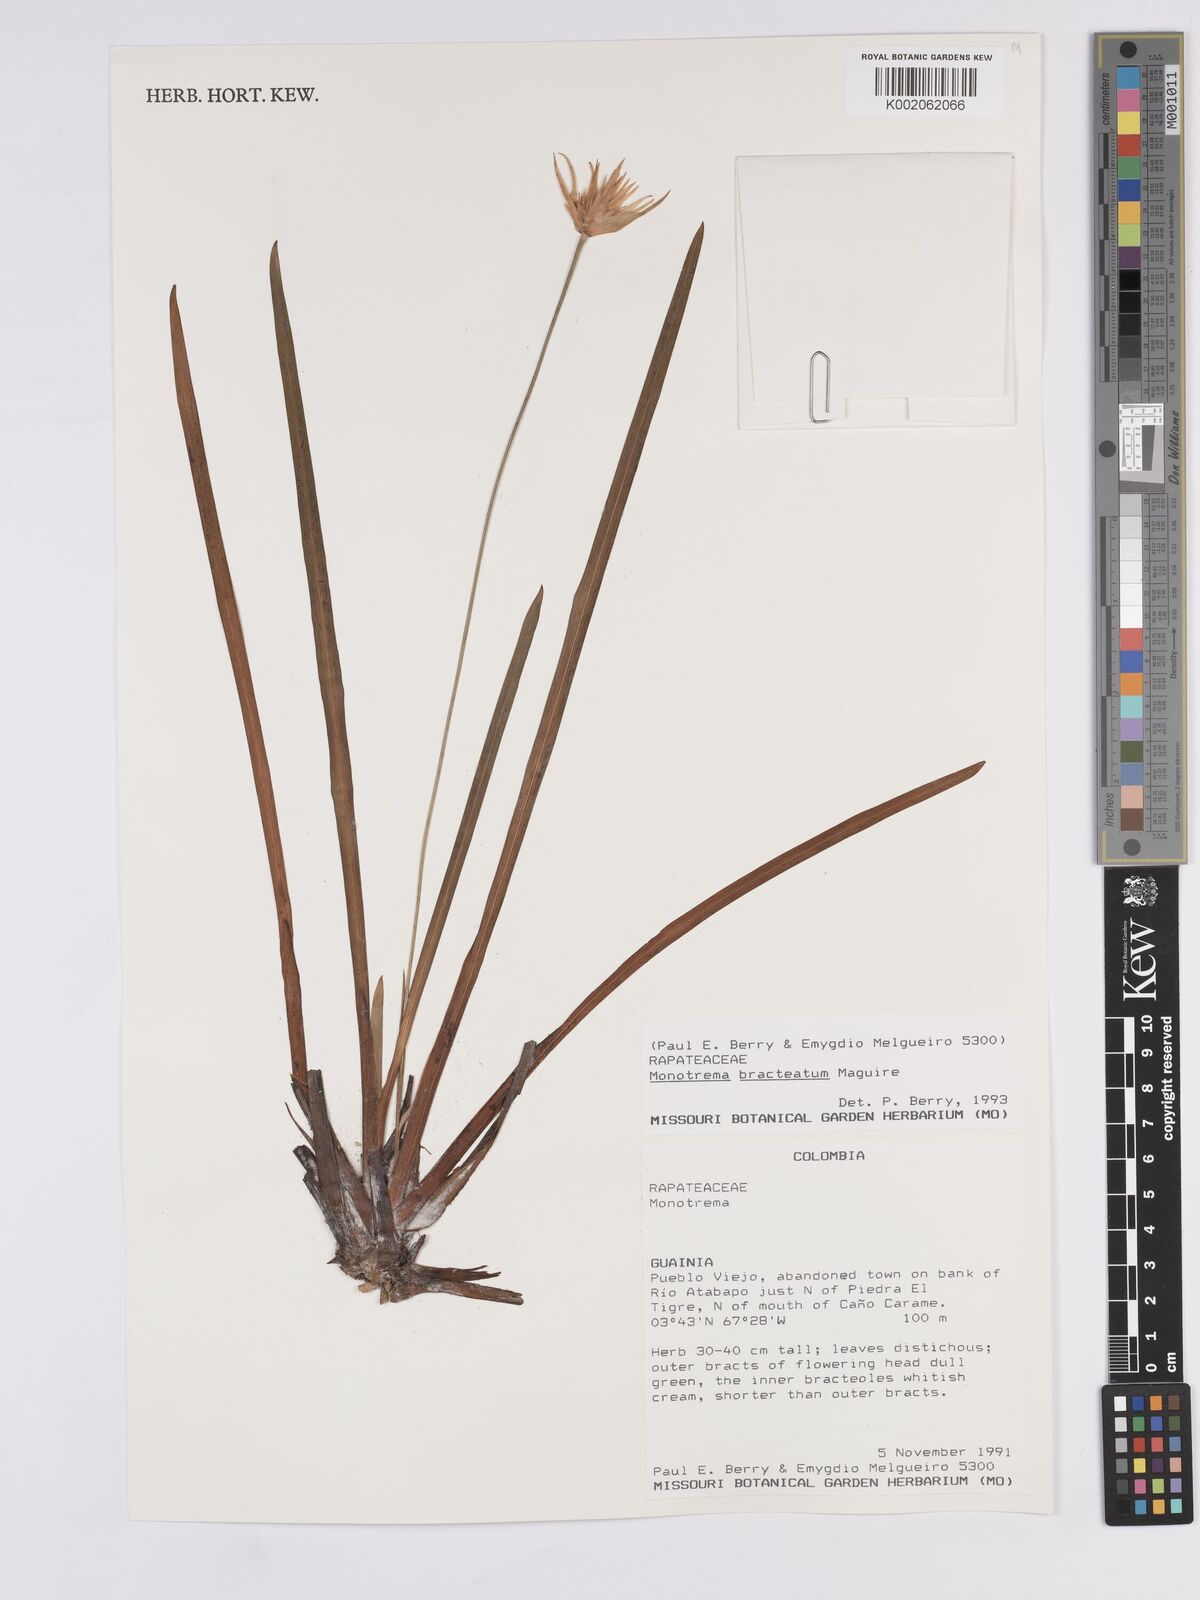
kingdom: Plantae
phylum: Tracheophyta
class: Liliopsida
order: Poales
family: Rapateaceae
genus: Monotrema
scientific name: Monotrema bracteatum
